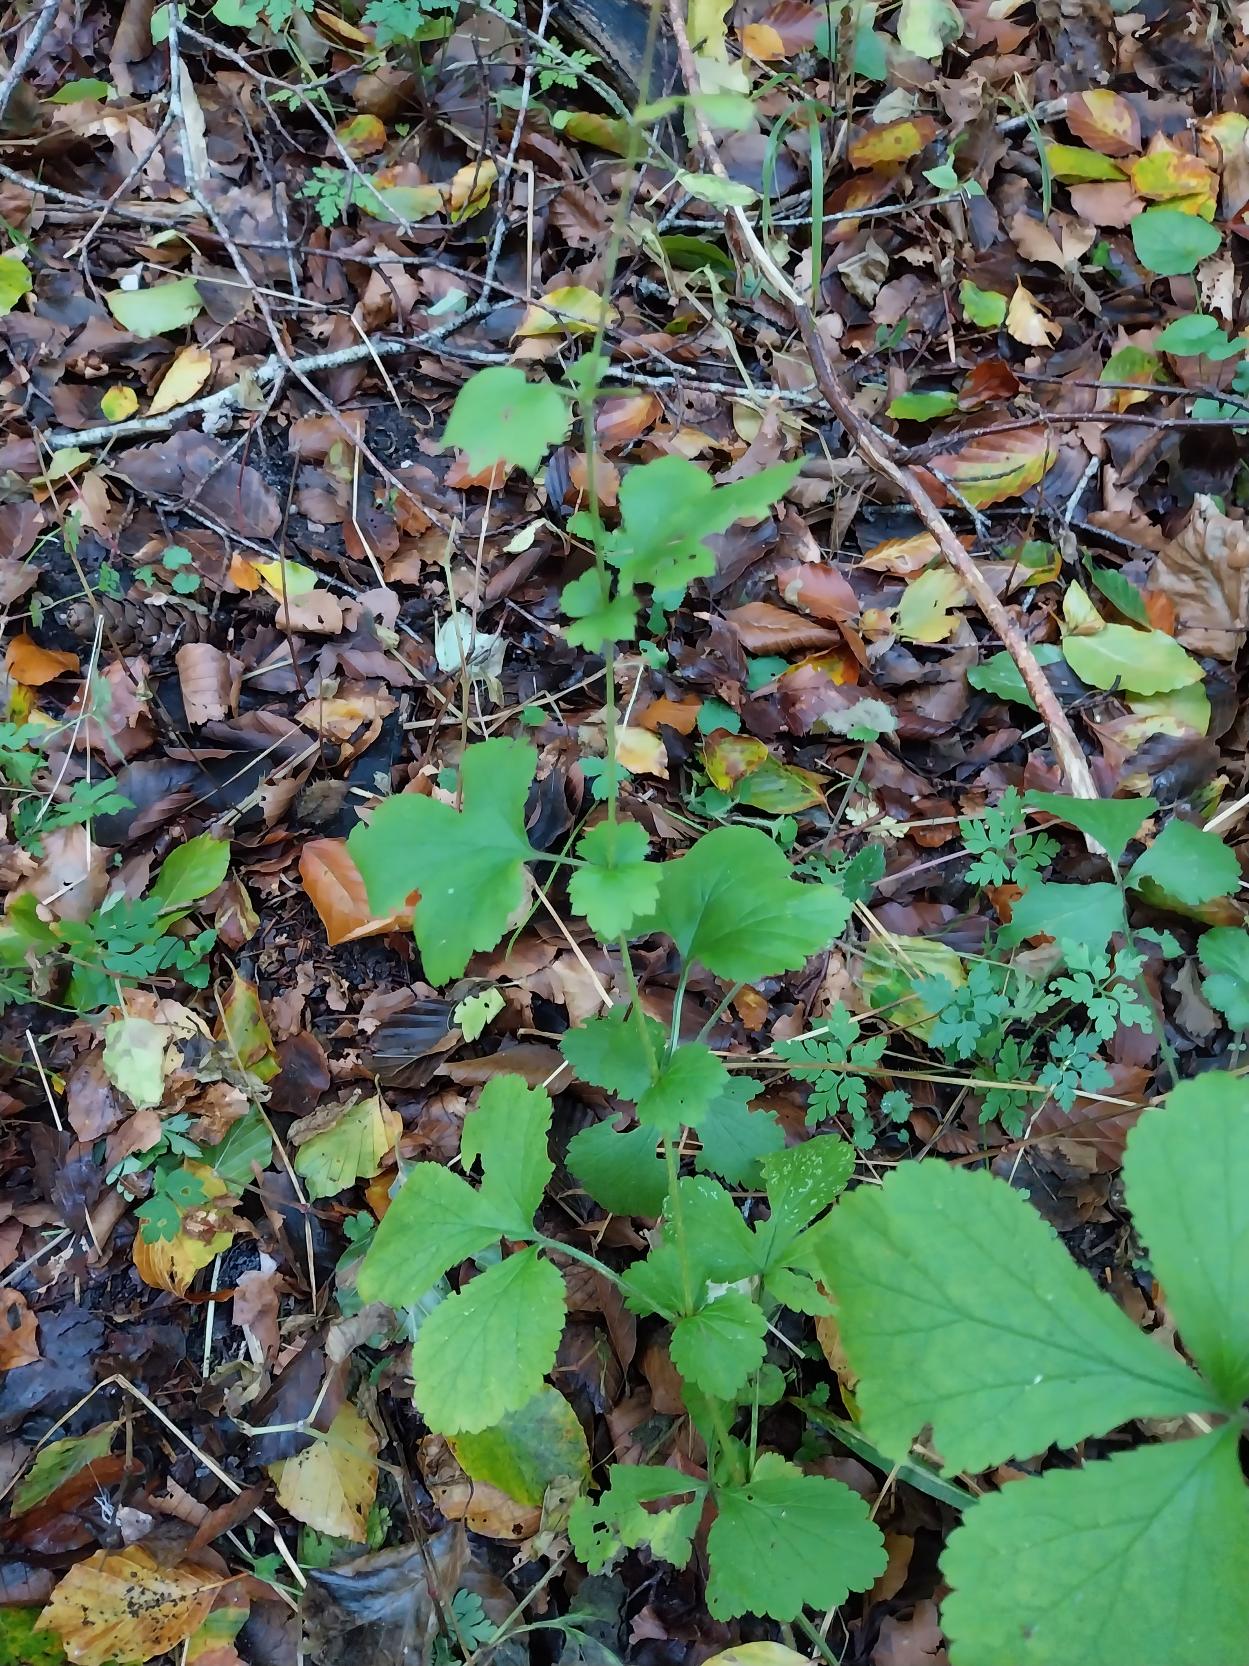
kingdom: Plantae
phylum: Tracheophyta
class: Magnoliopsida
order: Rosales
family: Rosaceae
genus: Geum
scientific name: Geum urbanum
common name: Feber-nellikerod
